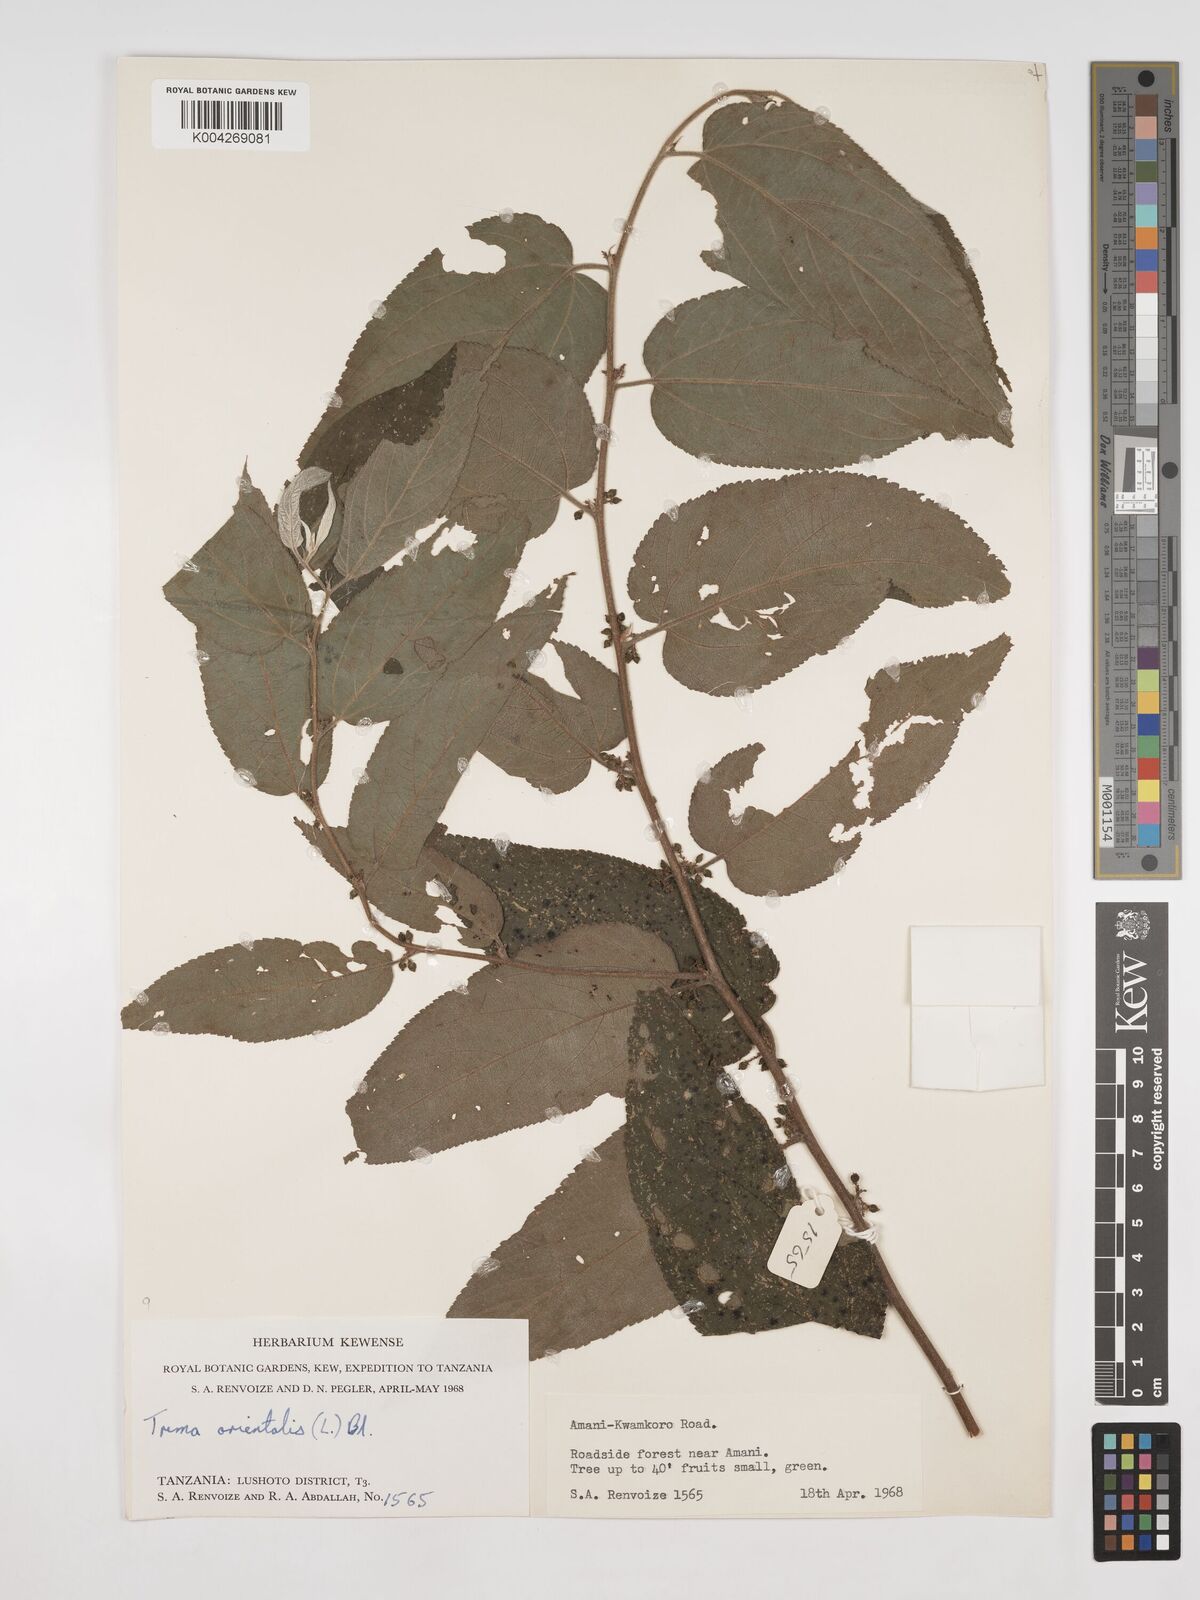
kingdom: Plantae
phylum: Tracheophyta
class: Magnoliopsida
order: Rosales
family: Cannabaceae
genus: Trema
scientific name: Trema orientale
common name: Indian charcoal tree
